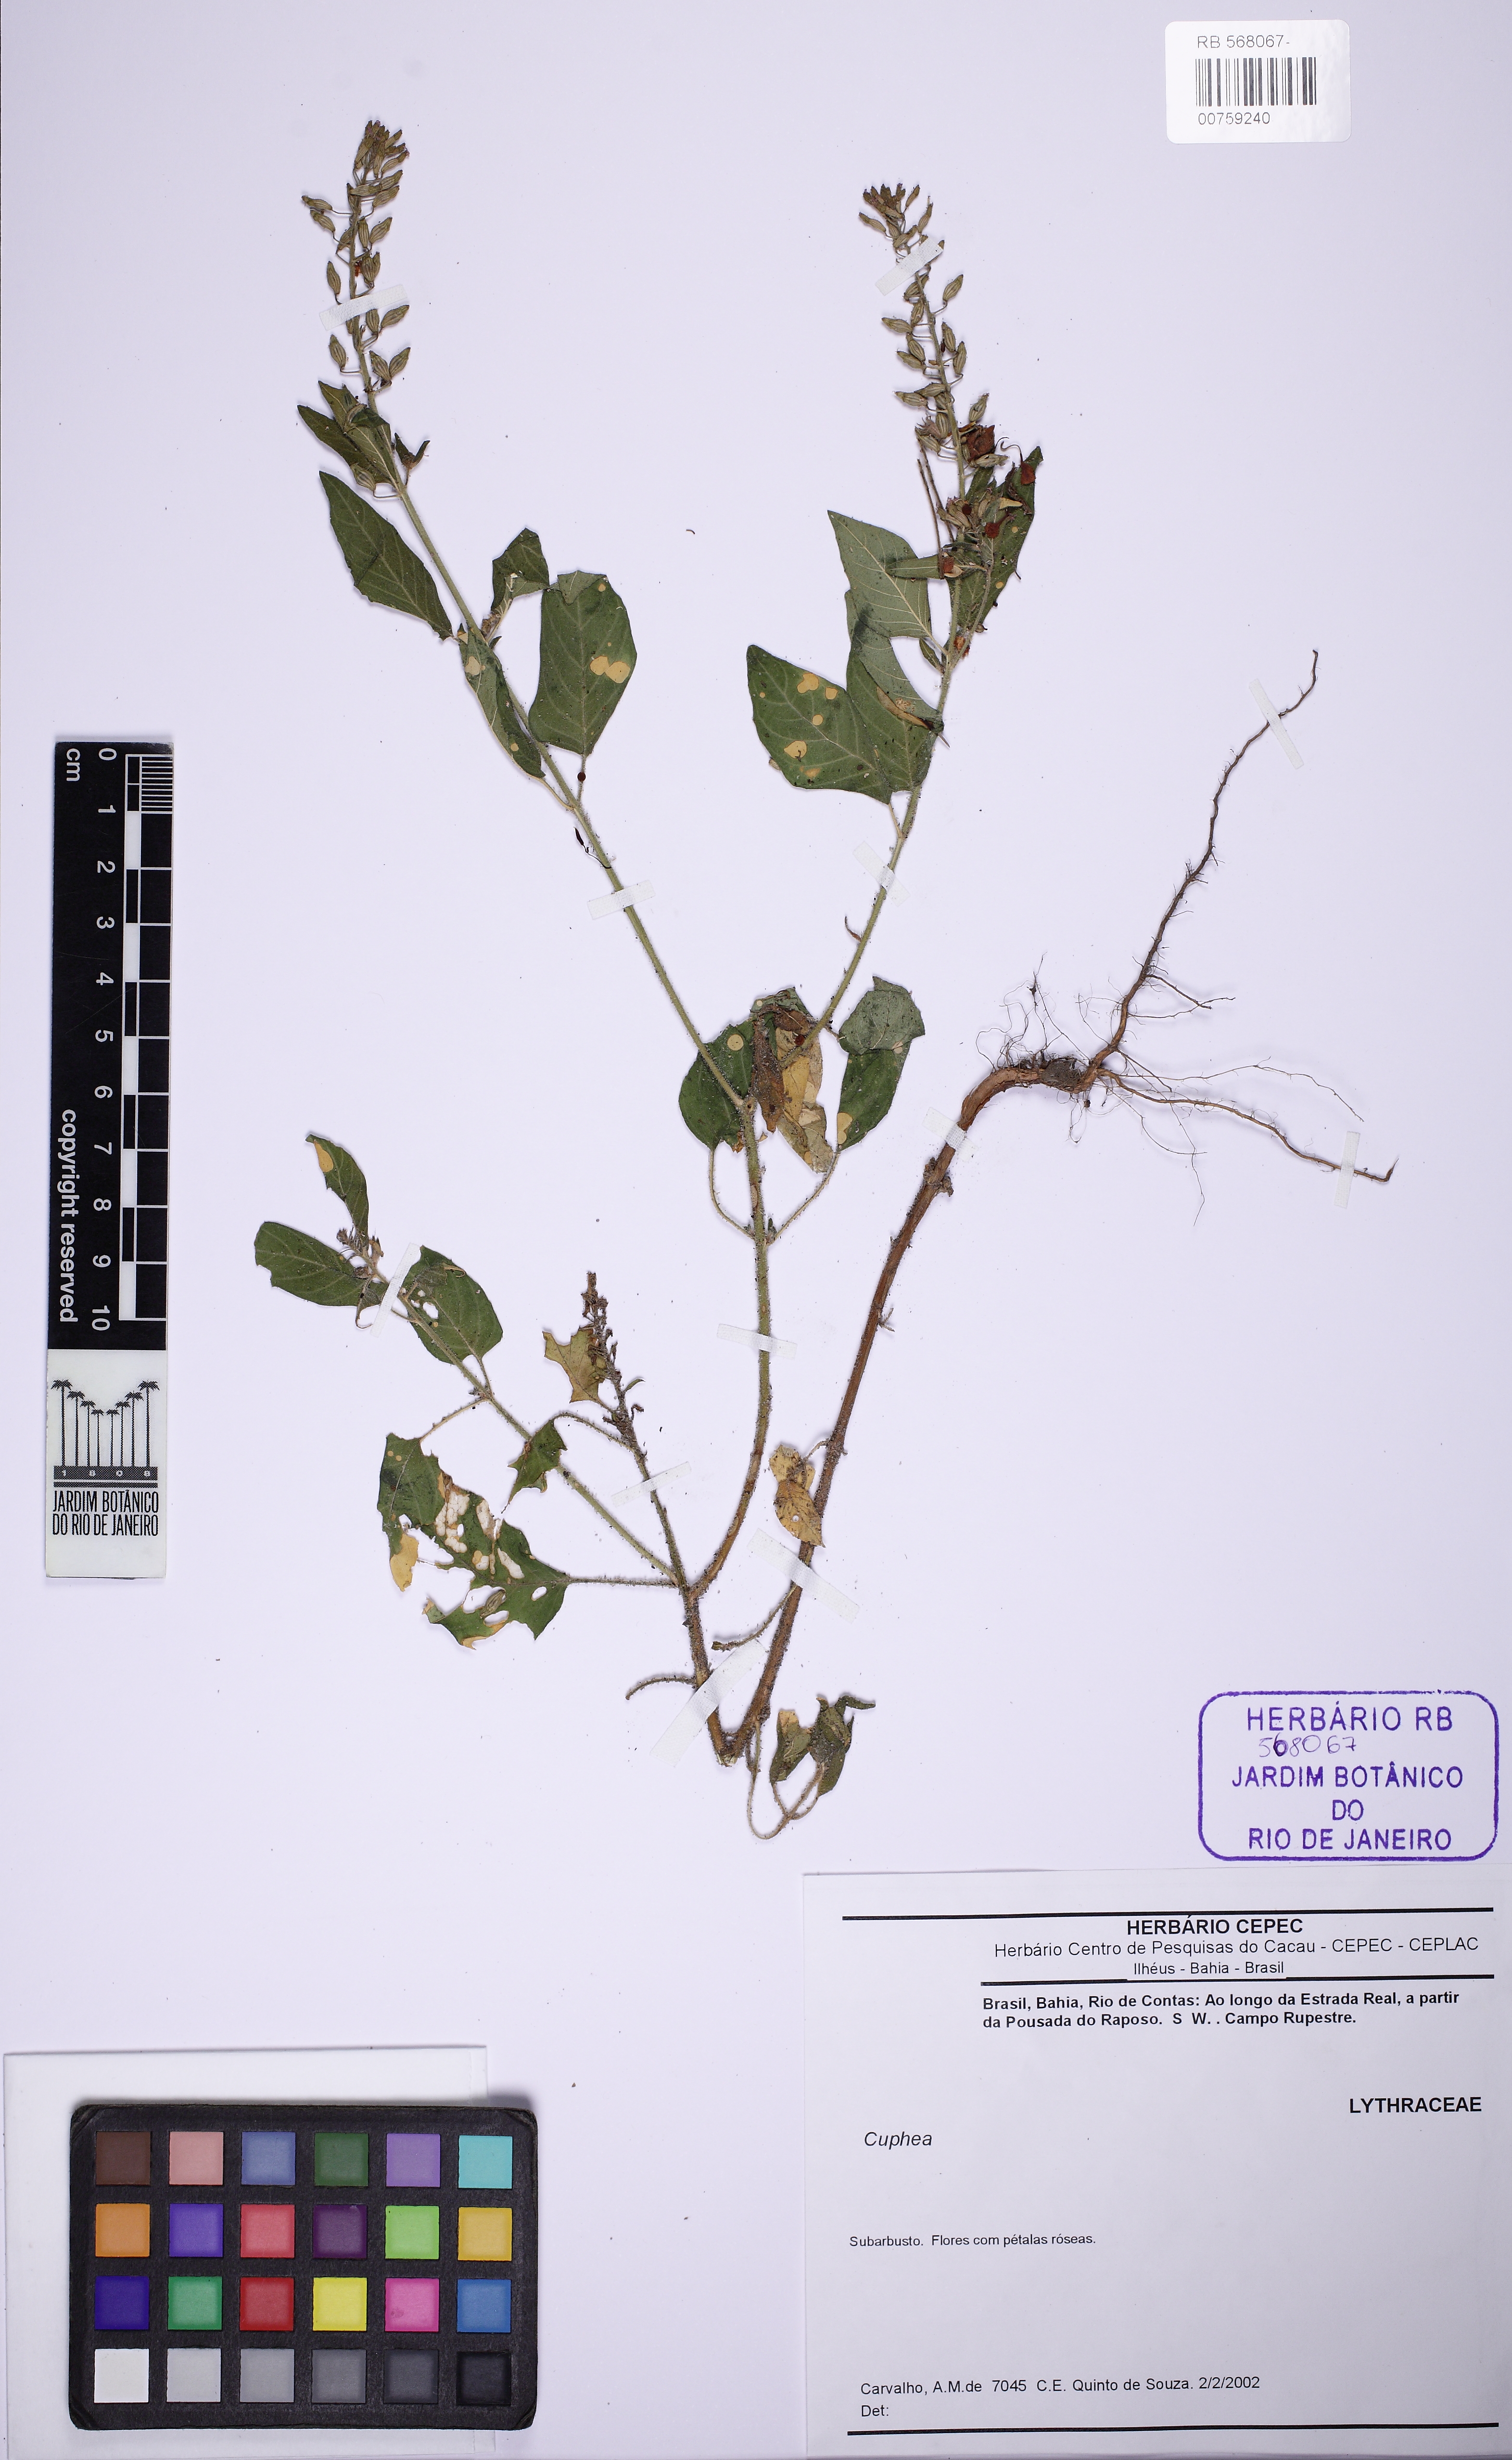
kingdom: Plantae
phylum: Tracheophyta
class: Magnoliopsida
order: Myrtales
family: Lythraceae
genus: Cuphea
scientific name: Cuphea circaeoides
